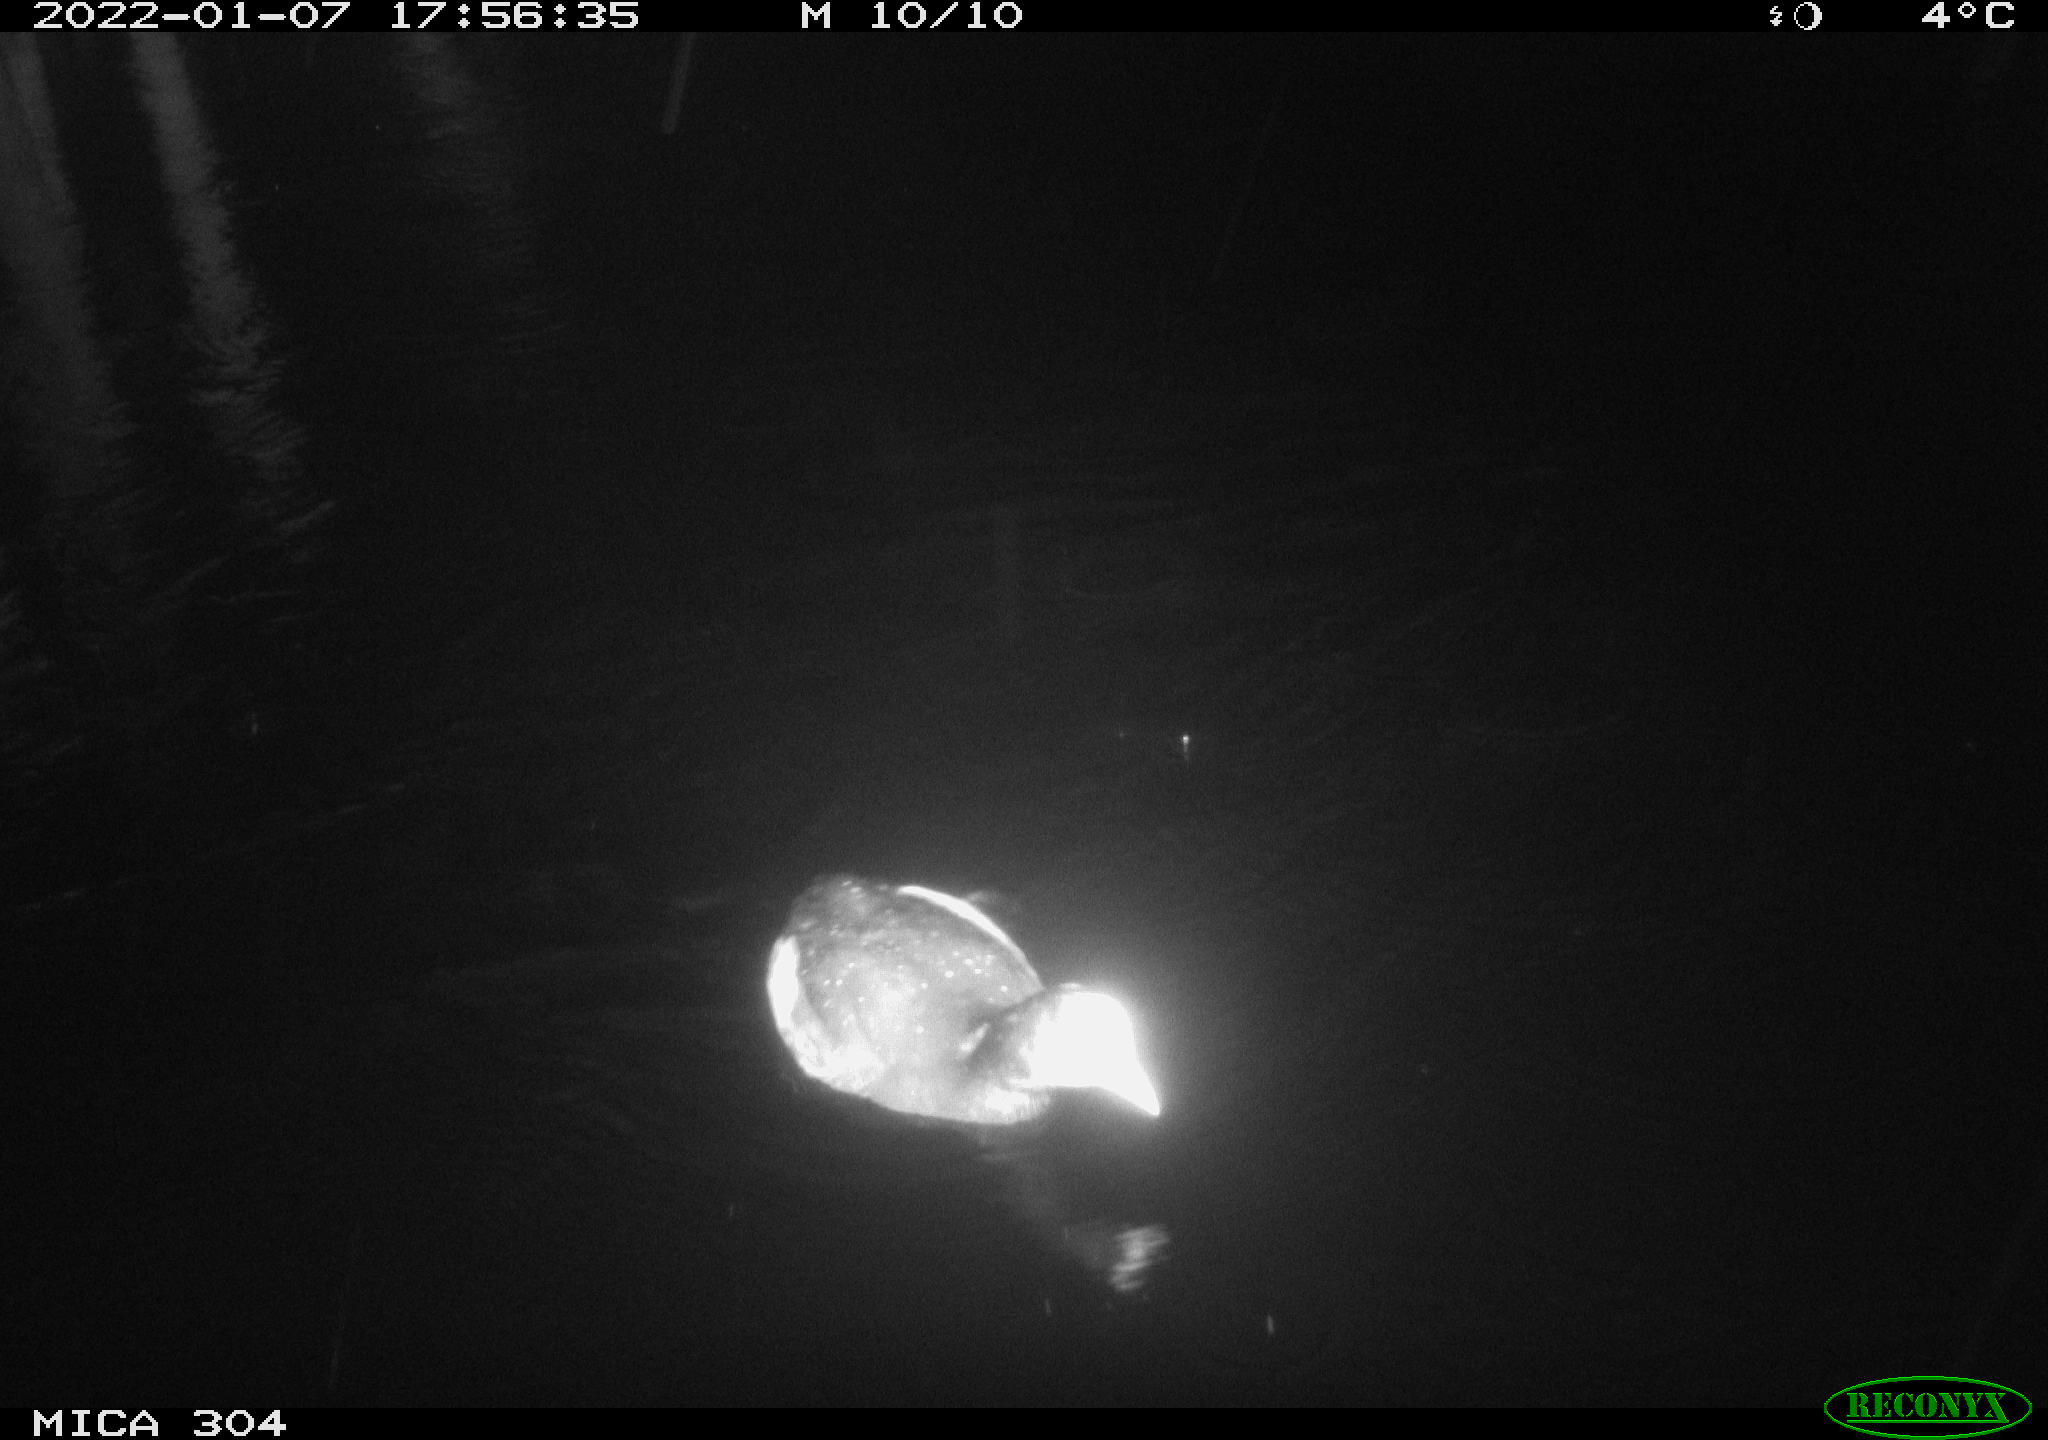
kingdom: Animalia
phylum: Chordata
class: Aves
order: Anseriformes
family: Anatidae
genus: Anas
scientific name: Anas
